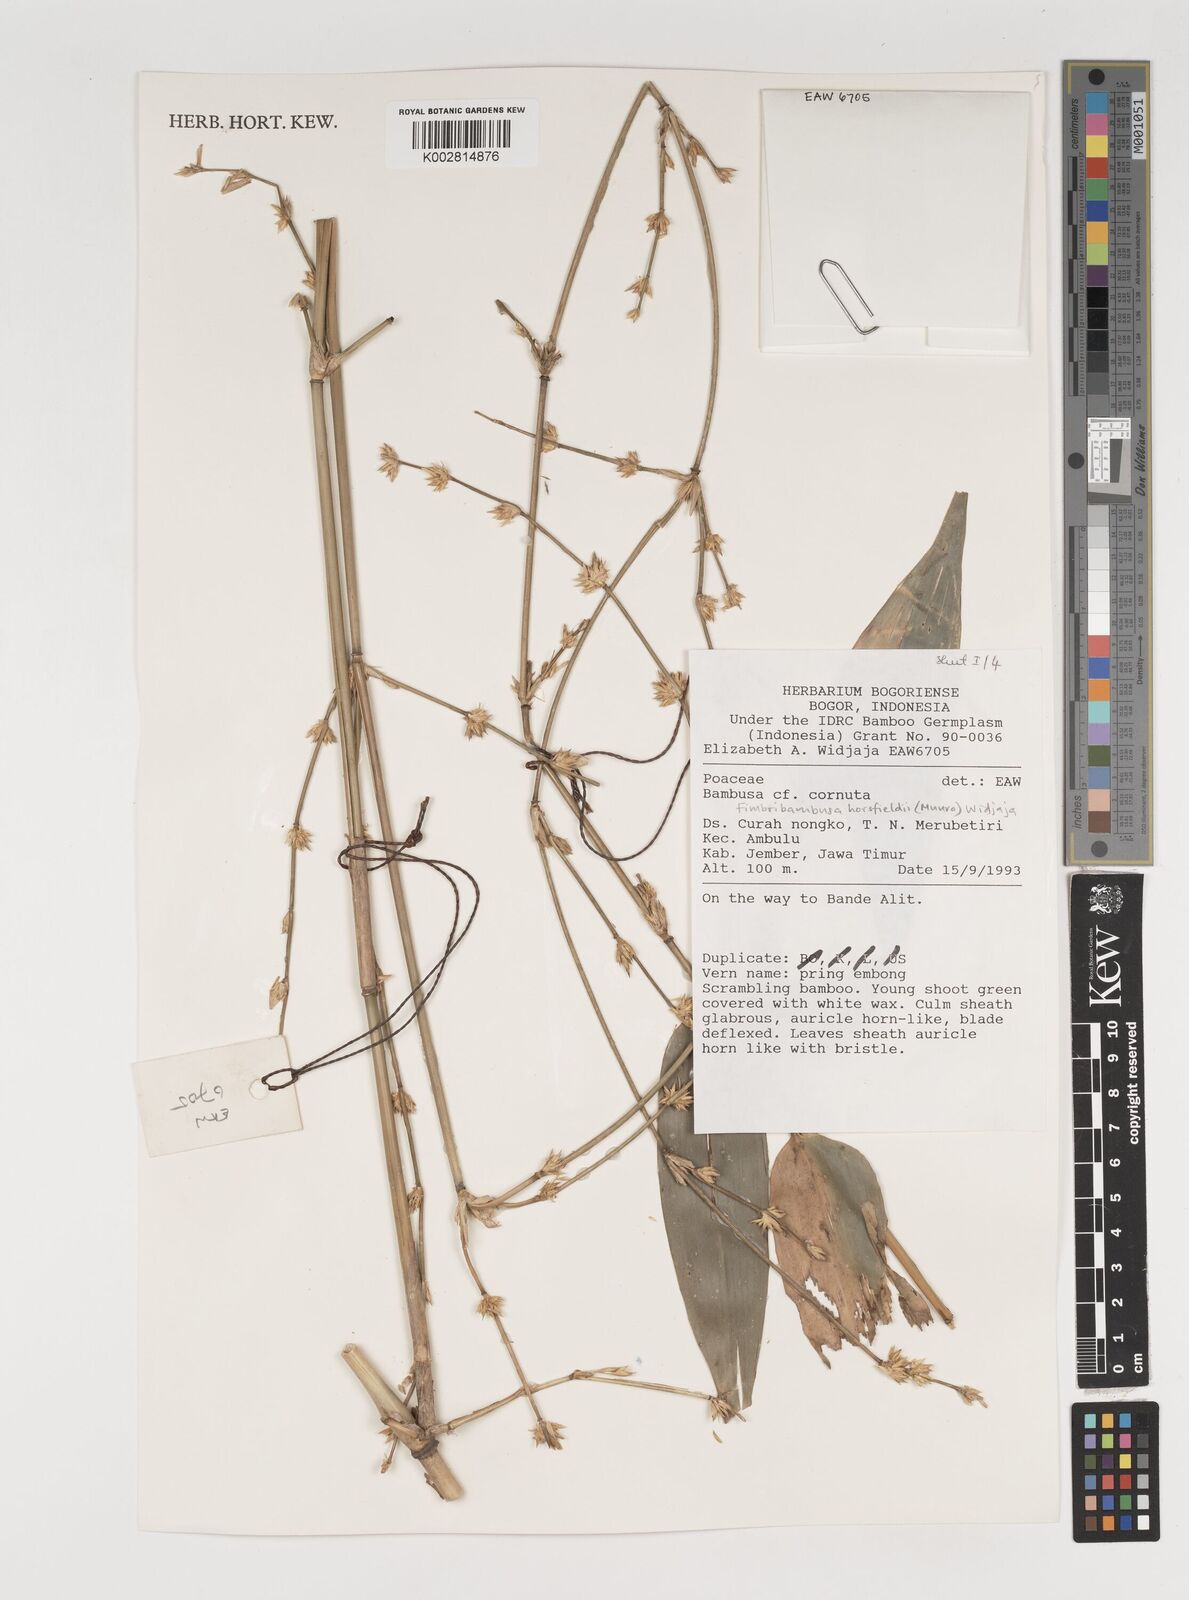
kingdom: Plantae
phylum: Tracheophyta
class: Liliopsida
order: Poales
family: Poaceae
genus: Fimbribambusa
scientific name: Fimbribambusa horsfieldii
